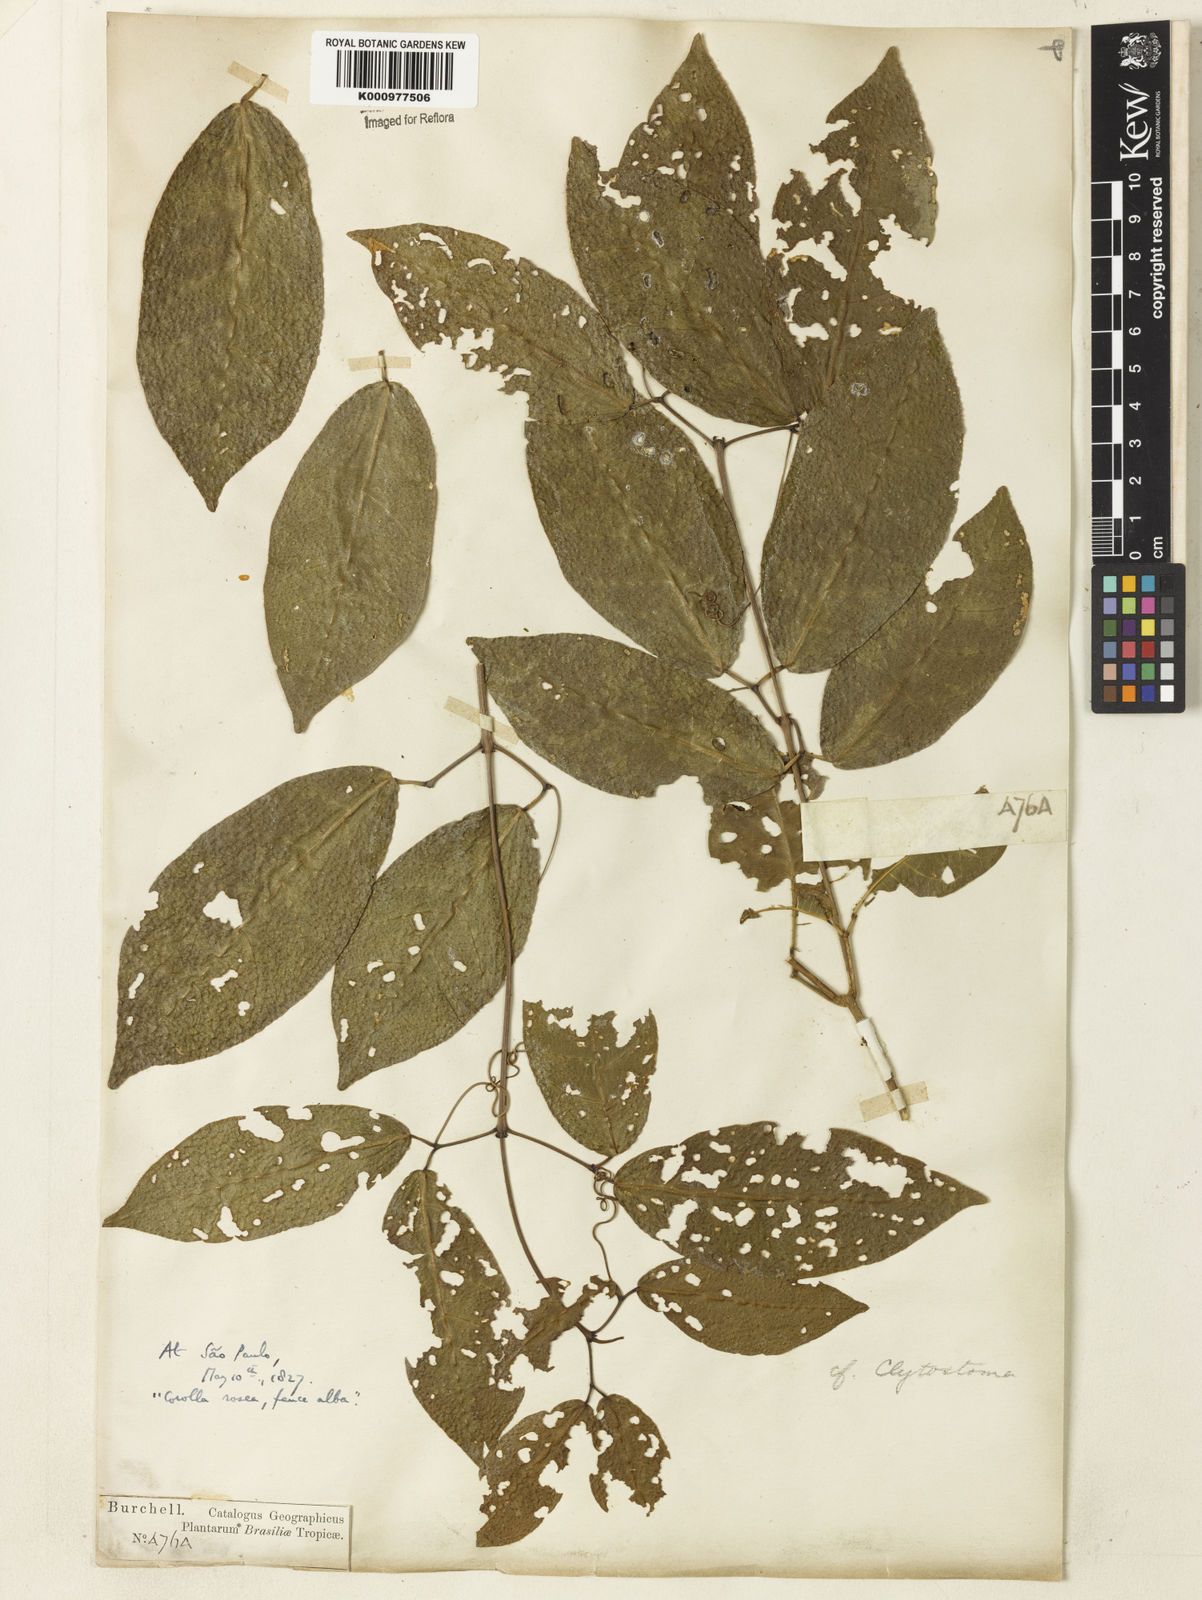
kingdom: Plantae
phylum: Tracheophyta
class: Magnoliopsida
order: Lamiales
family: Bignoniaceae
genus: Bignonia
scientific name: Bignonia binata
